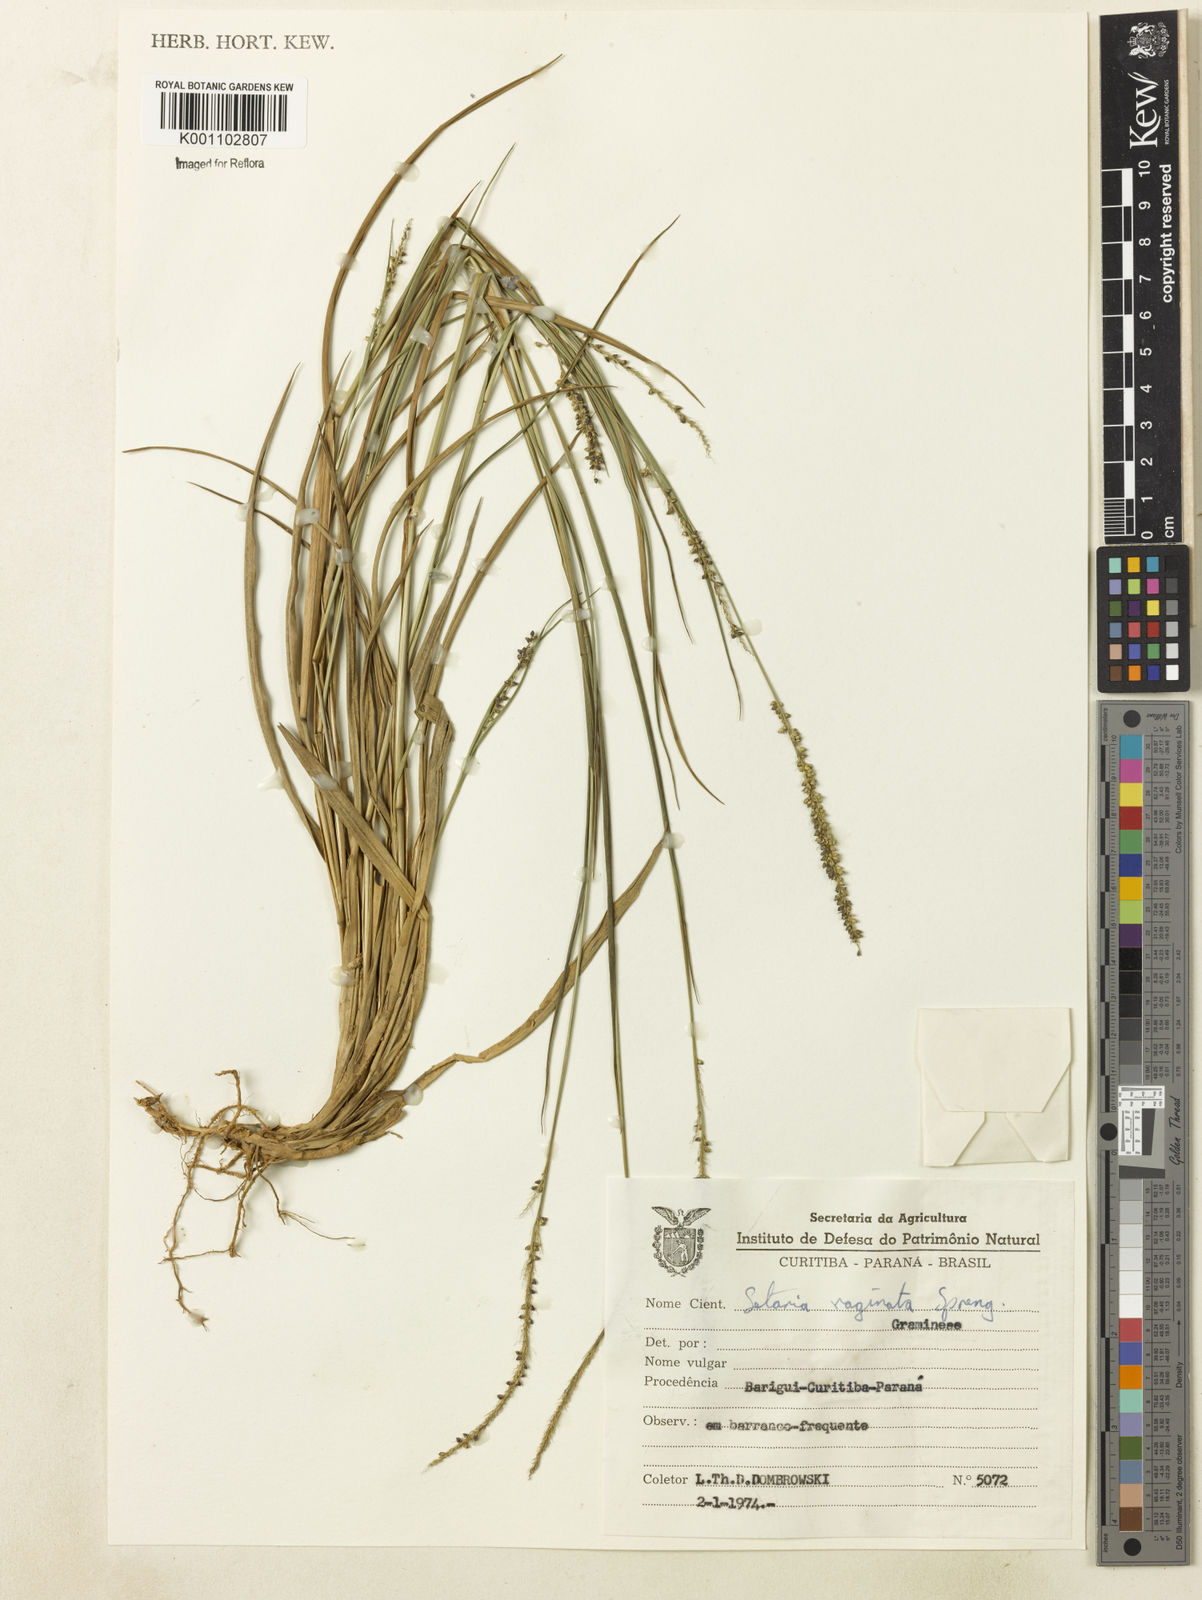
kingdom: Plantae
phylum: Tracheophyta
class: Liliopsida
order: Poales
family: Poaceae
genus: Setaria
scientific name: Setaria setosa
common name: West indies bristle grass
